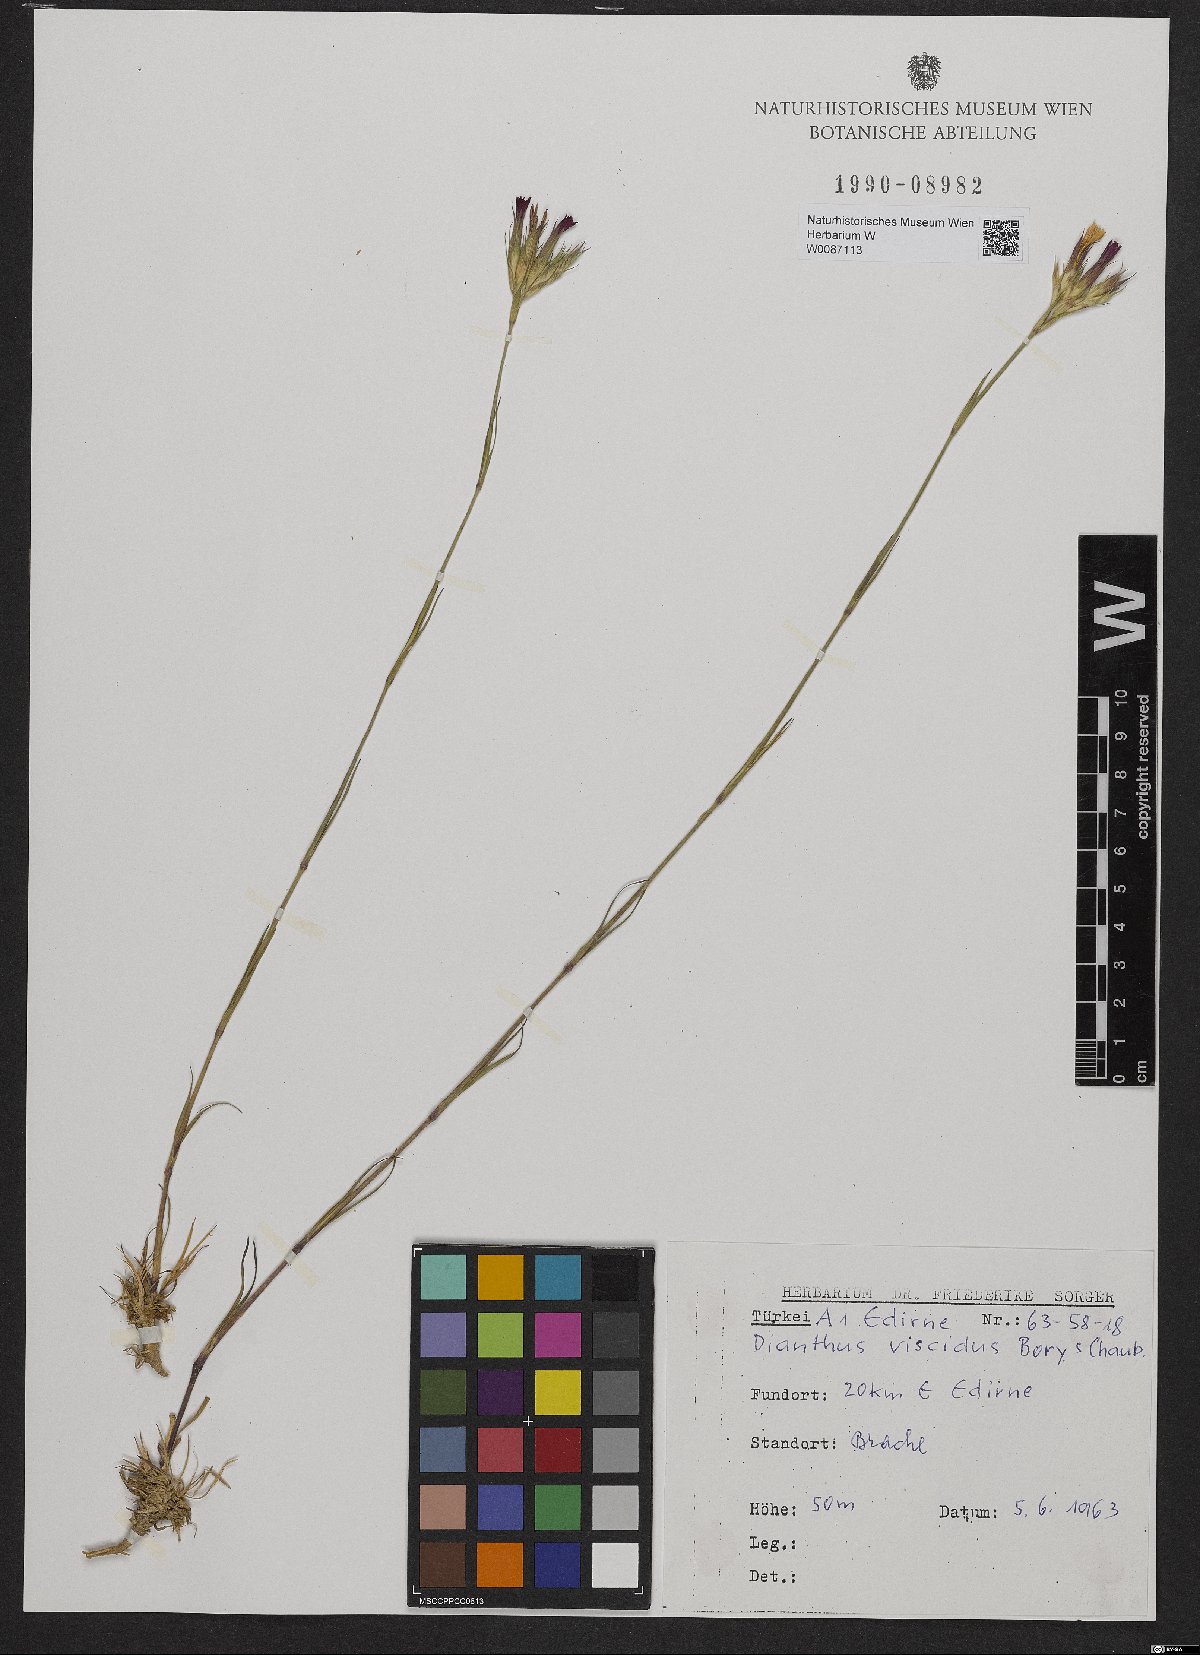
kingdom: Plantae
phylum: Tracheophyta
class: Magnoliopsida
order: Caryophyllales
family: Caryophyllaceae
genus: Dianthus
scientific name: Dianthus viscidus
